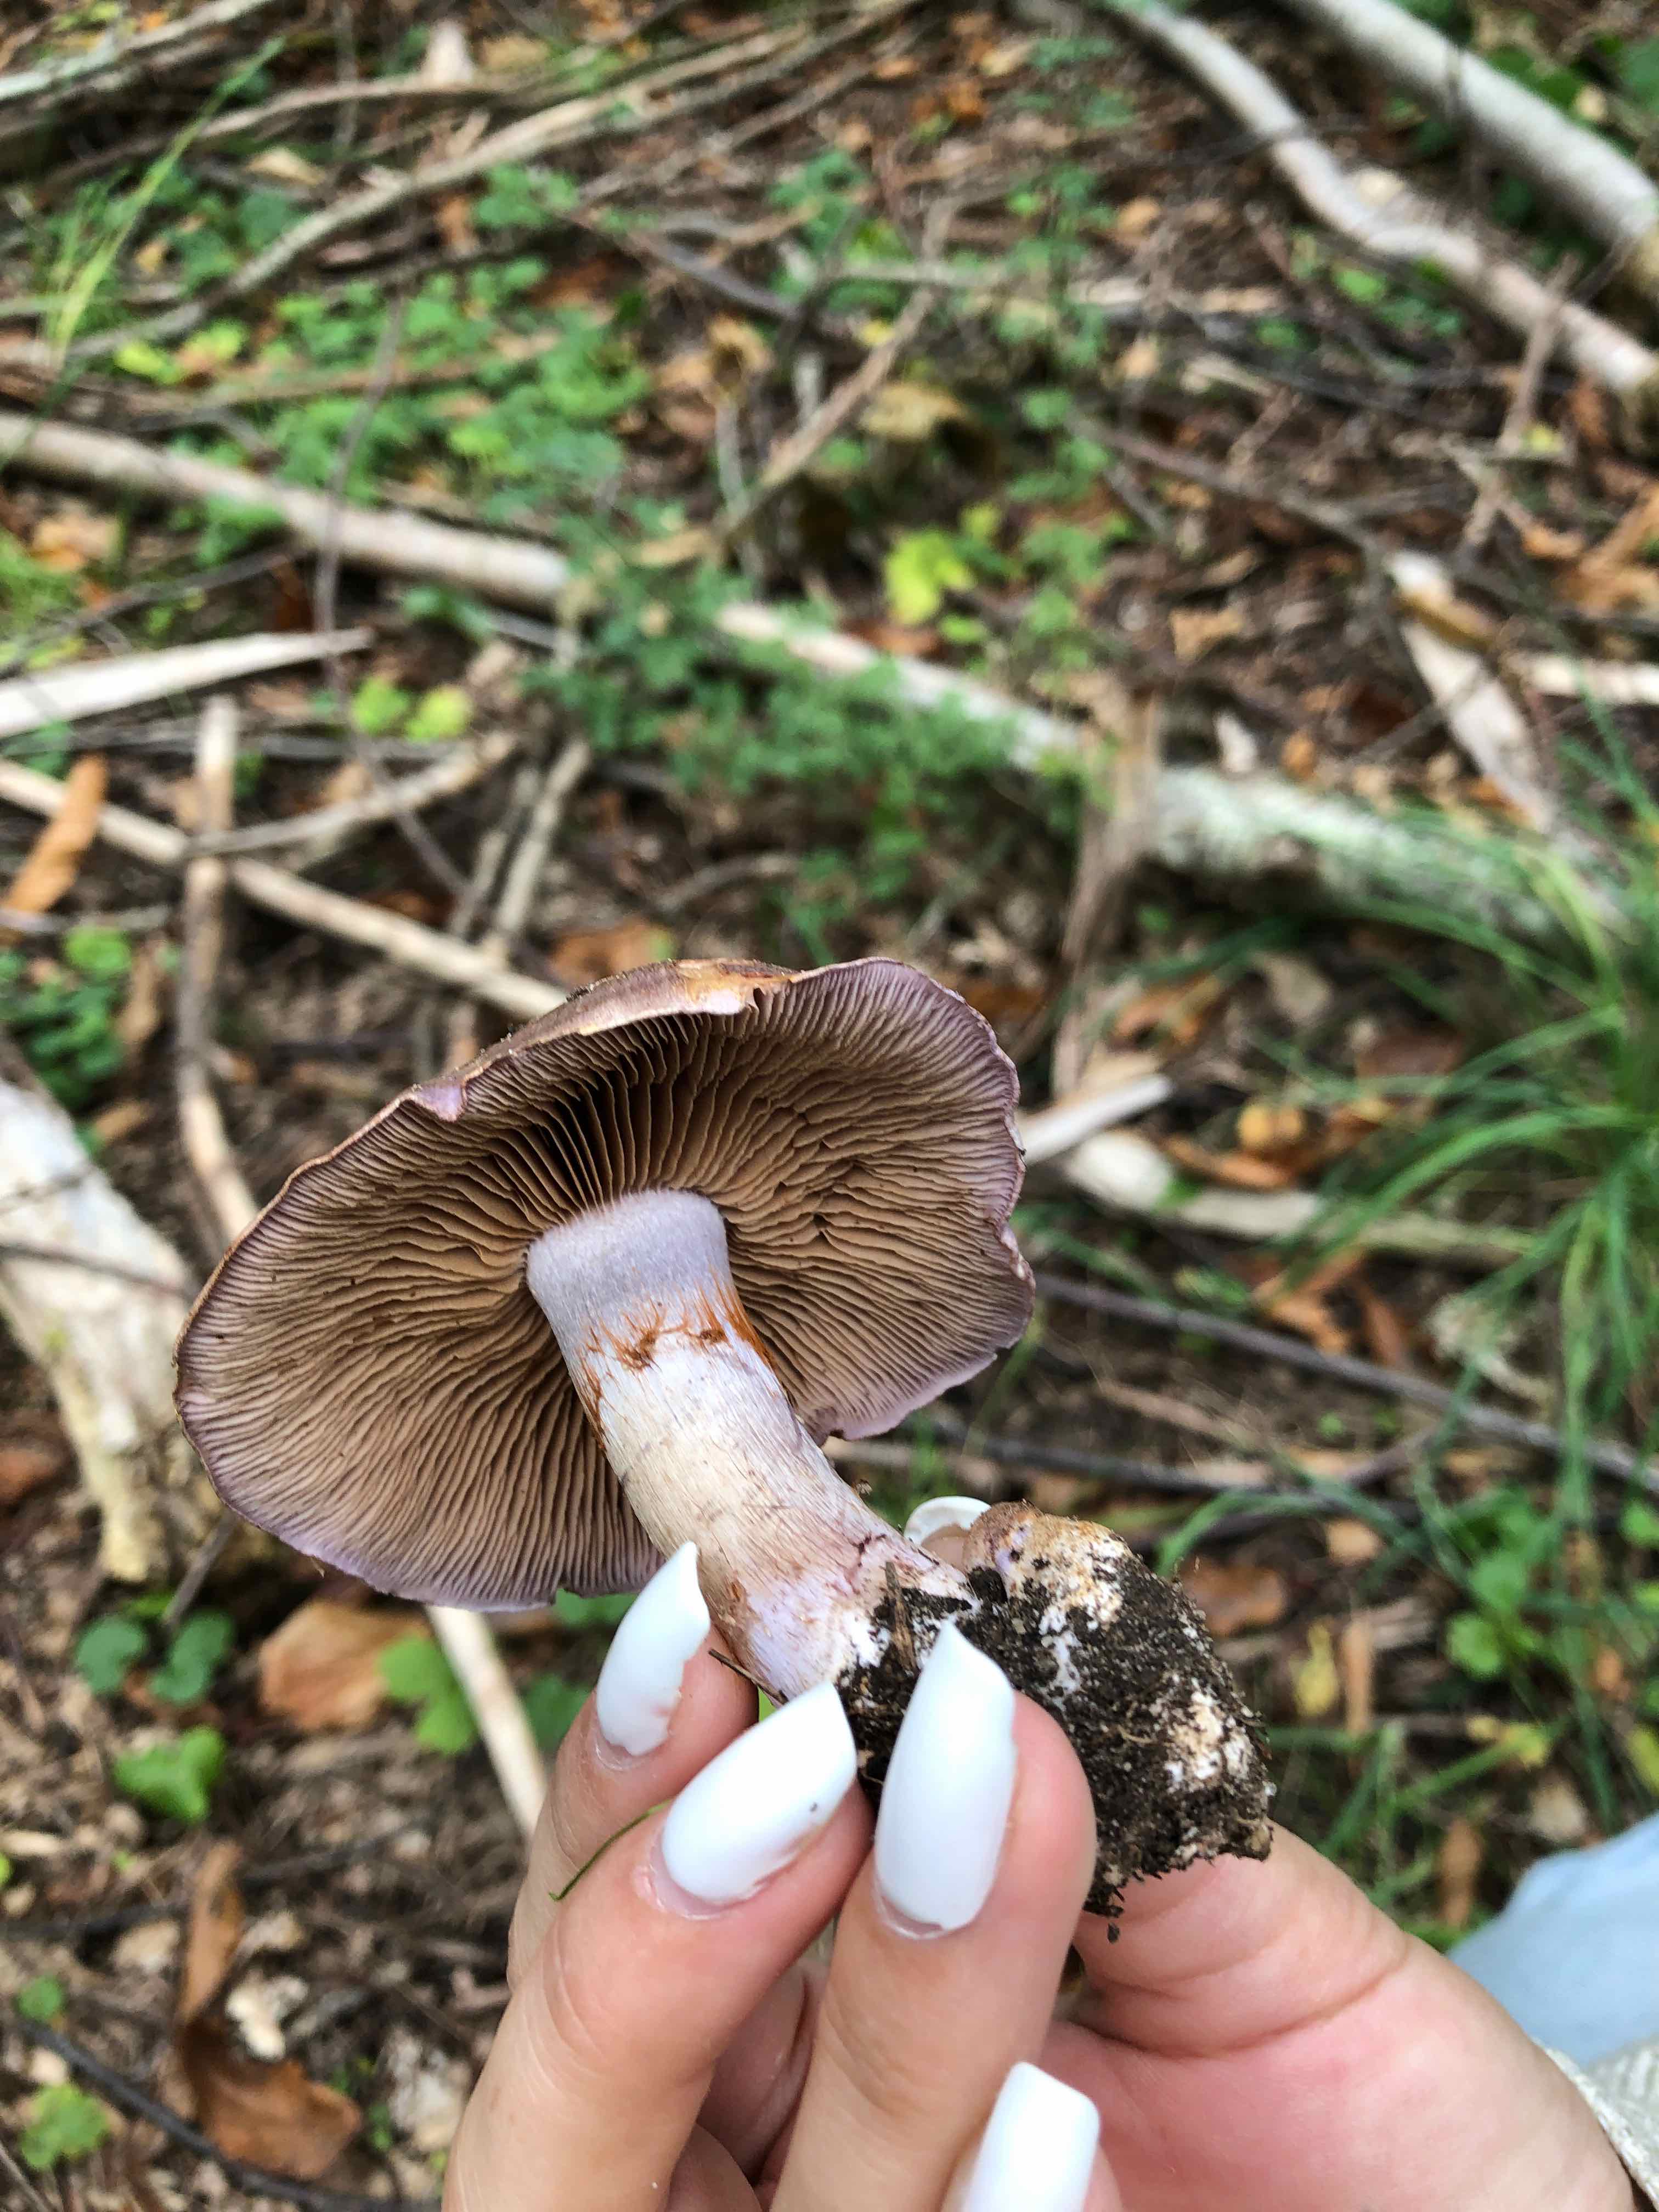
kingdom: Fungi
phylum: Basidiomycota
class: Agaricomycetes
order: Agaricales
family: Cortinariaceae
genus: Cortinarius
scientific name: Cortinarius largus
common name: violetrandet slørhat
